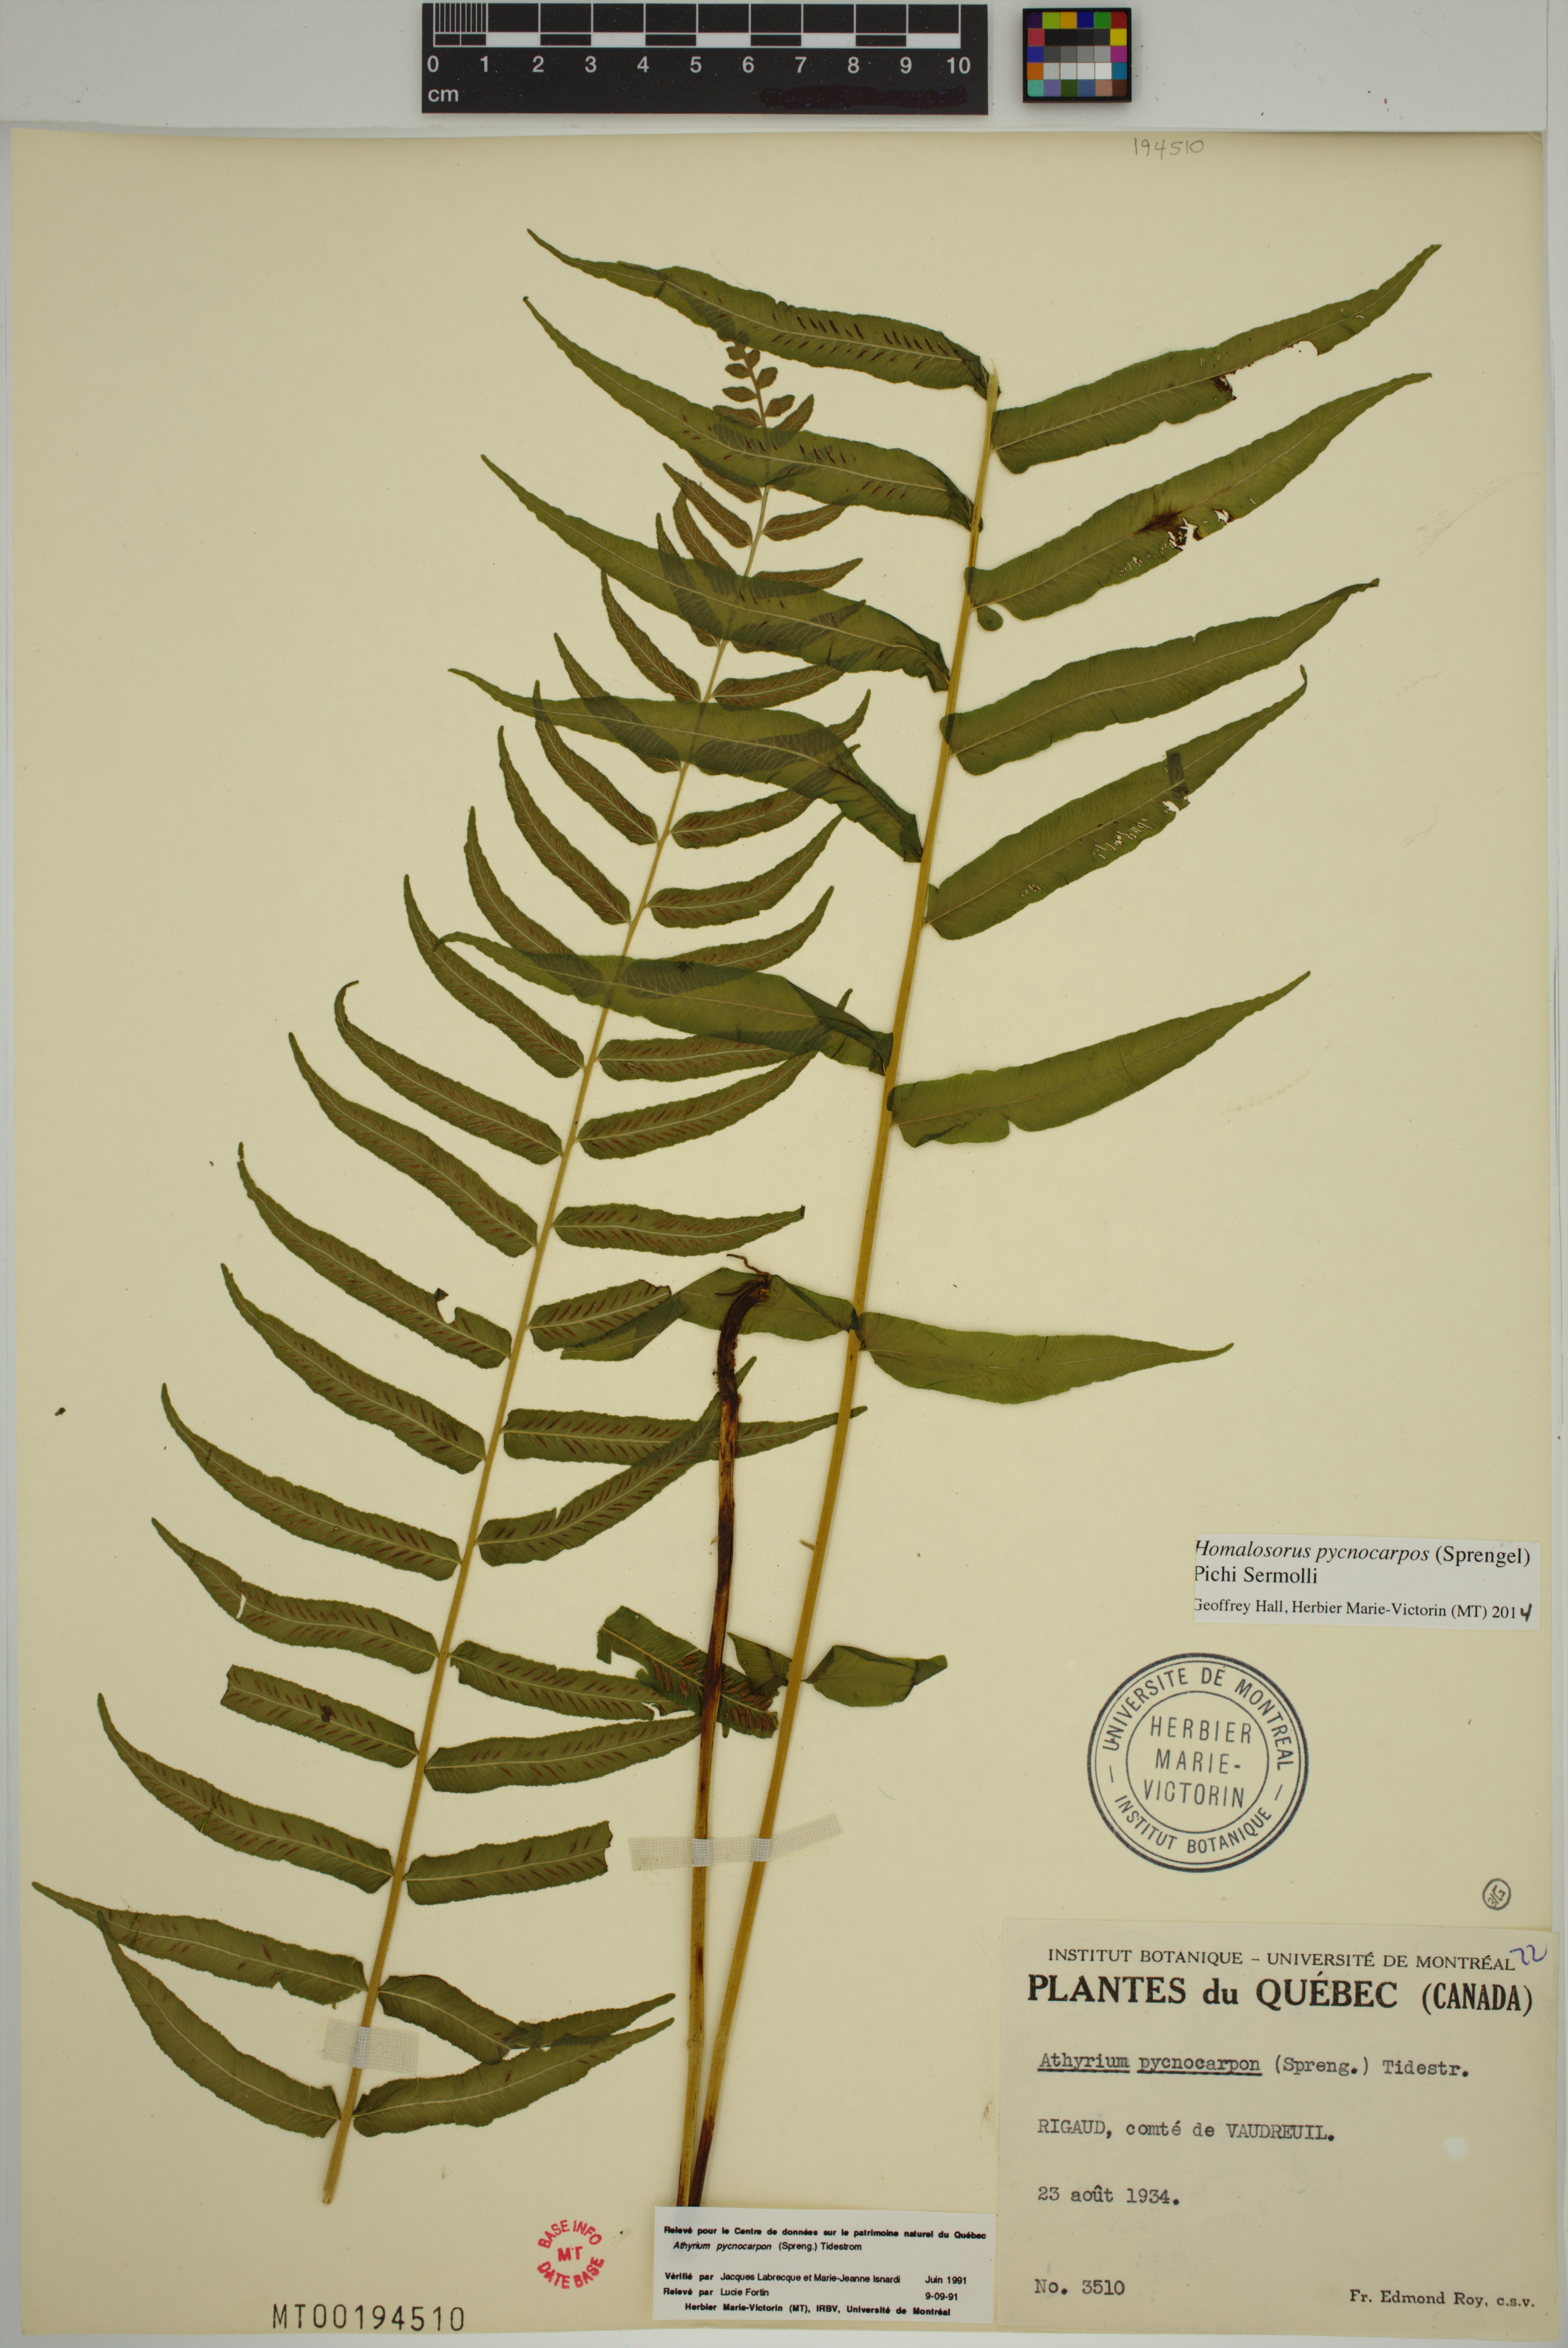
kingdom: Plantae
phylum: Tracheophyta
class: Polypodiopsida
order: Polypodiales
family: Diplaziopsidaceae
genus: Homalosorus
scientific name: Homalosorus pycnocarpos
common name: Glade fern
